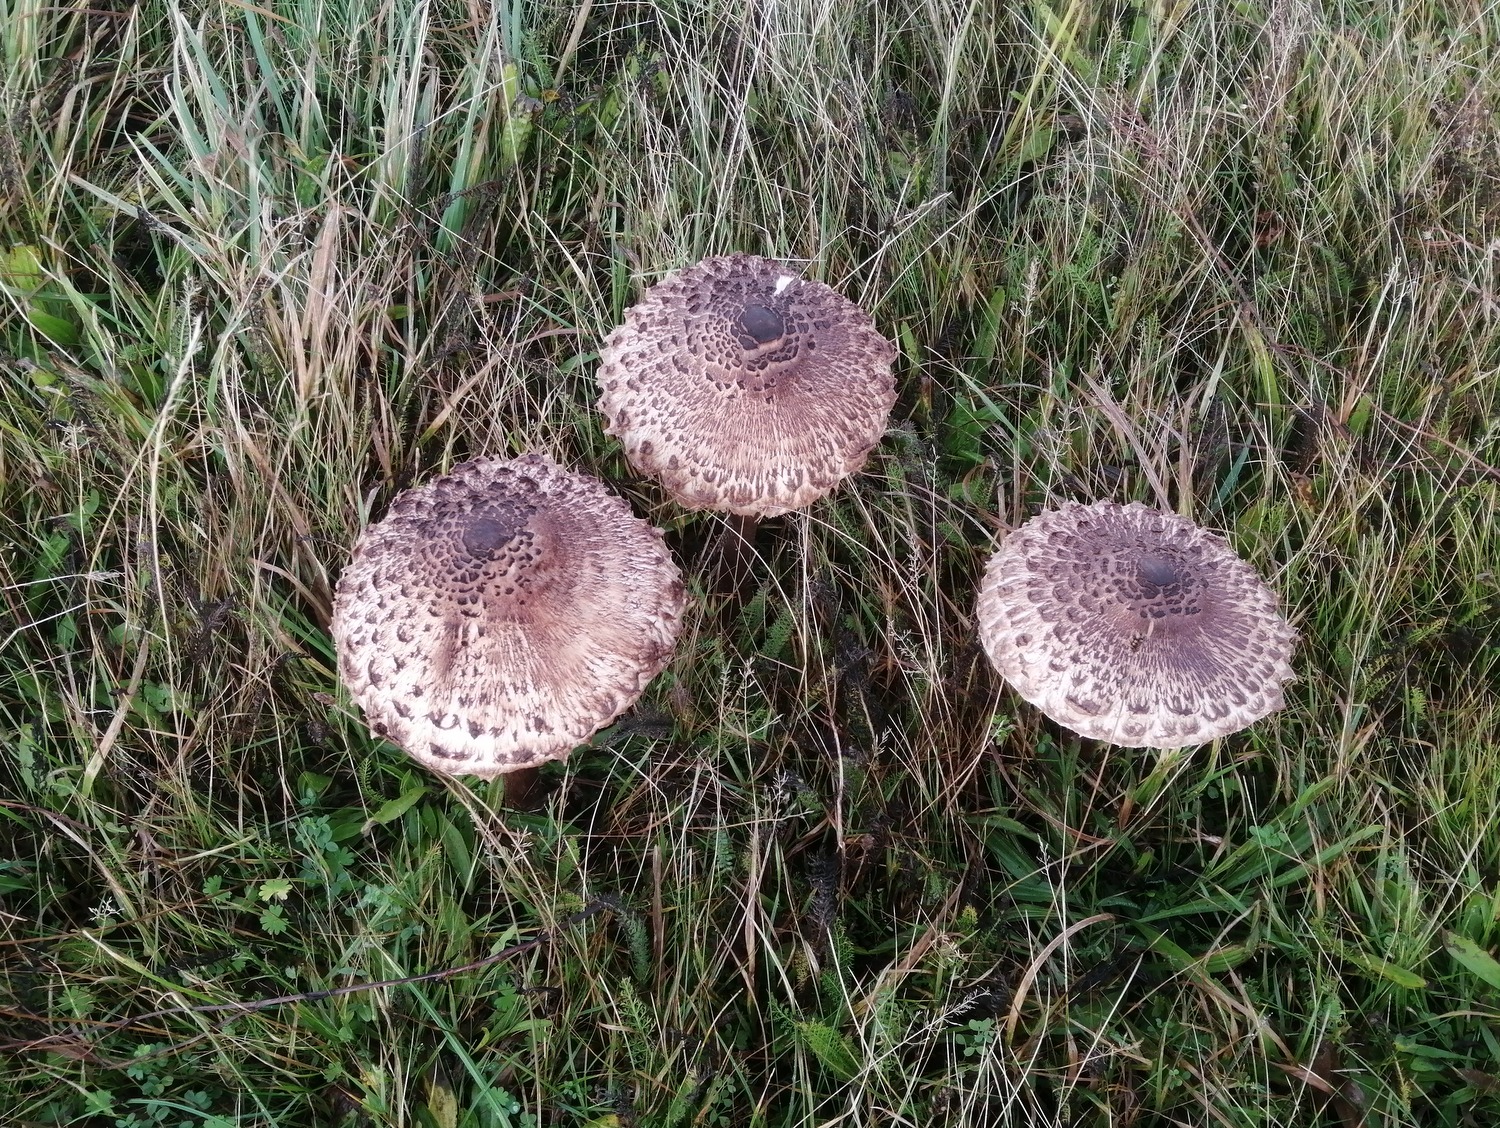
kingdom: Fungi
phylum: Basidiomycota
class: Agaricomycetes
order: Agaricales
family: Agaricaceae
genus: Macrolepiota
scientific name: Macrolepiota procera
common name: stor kæmpeparasolhat
